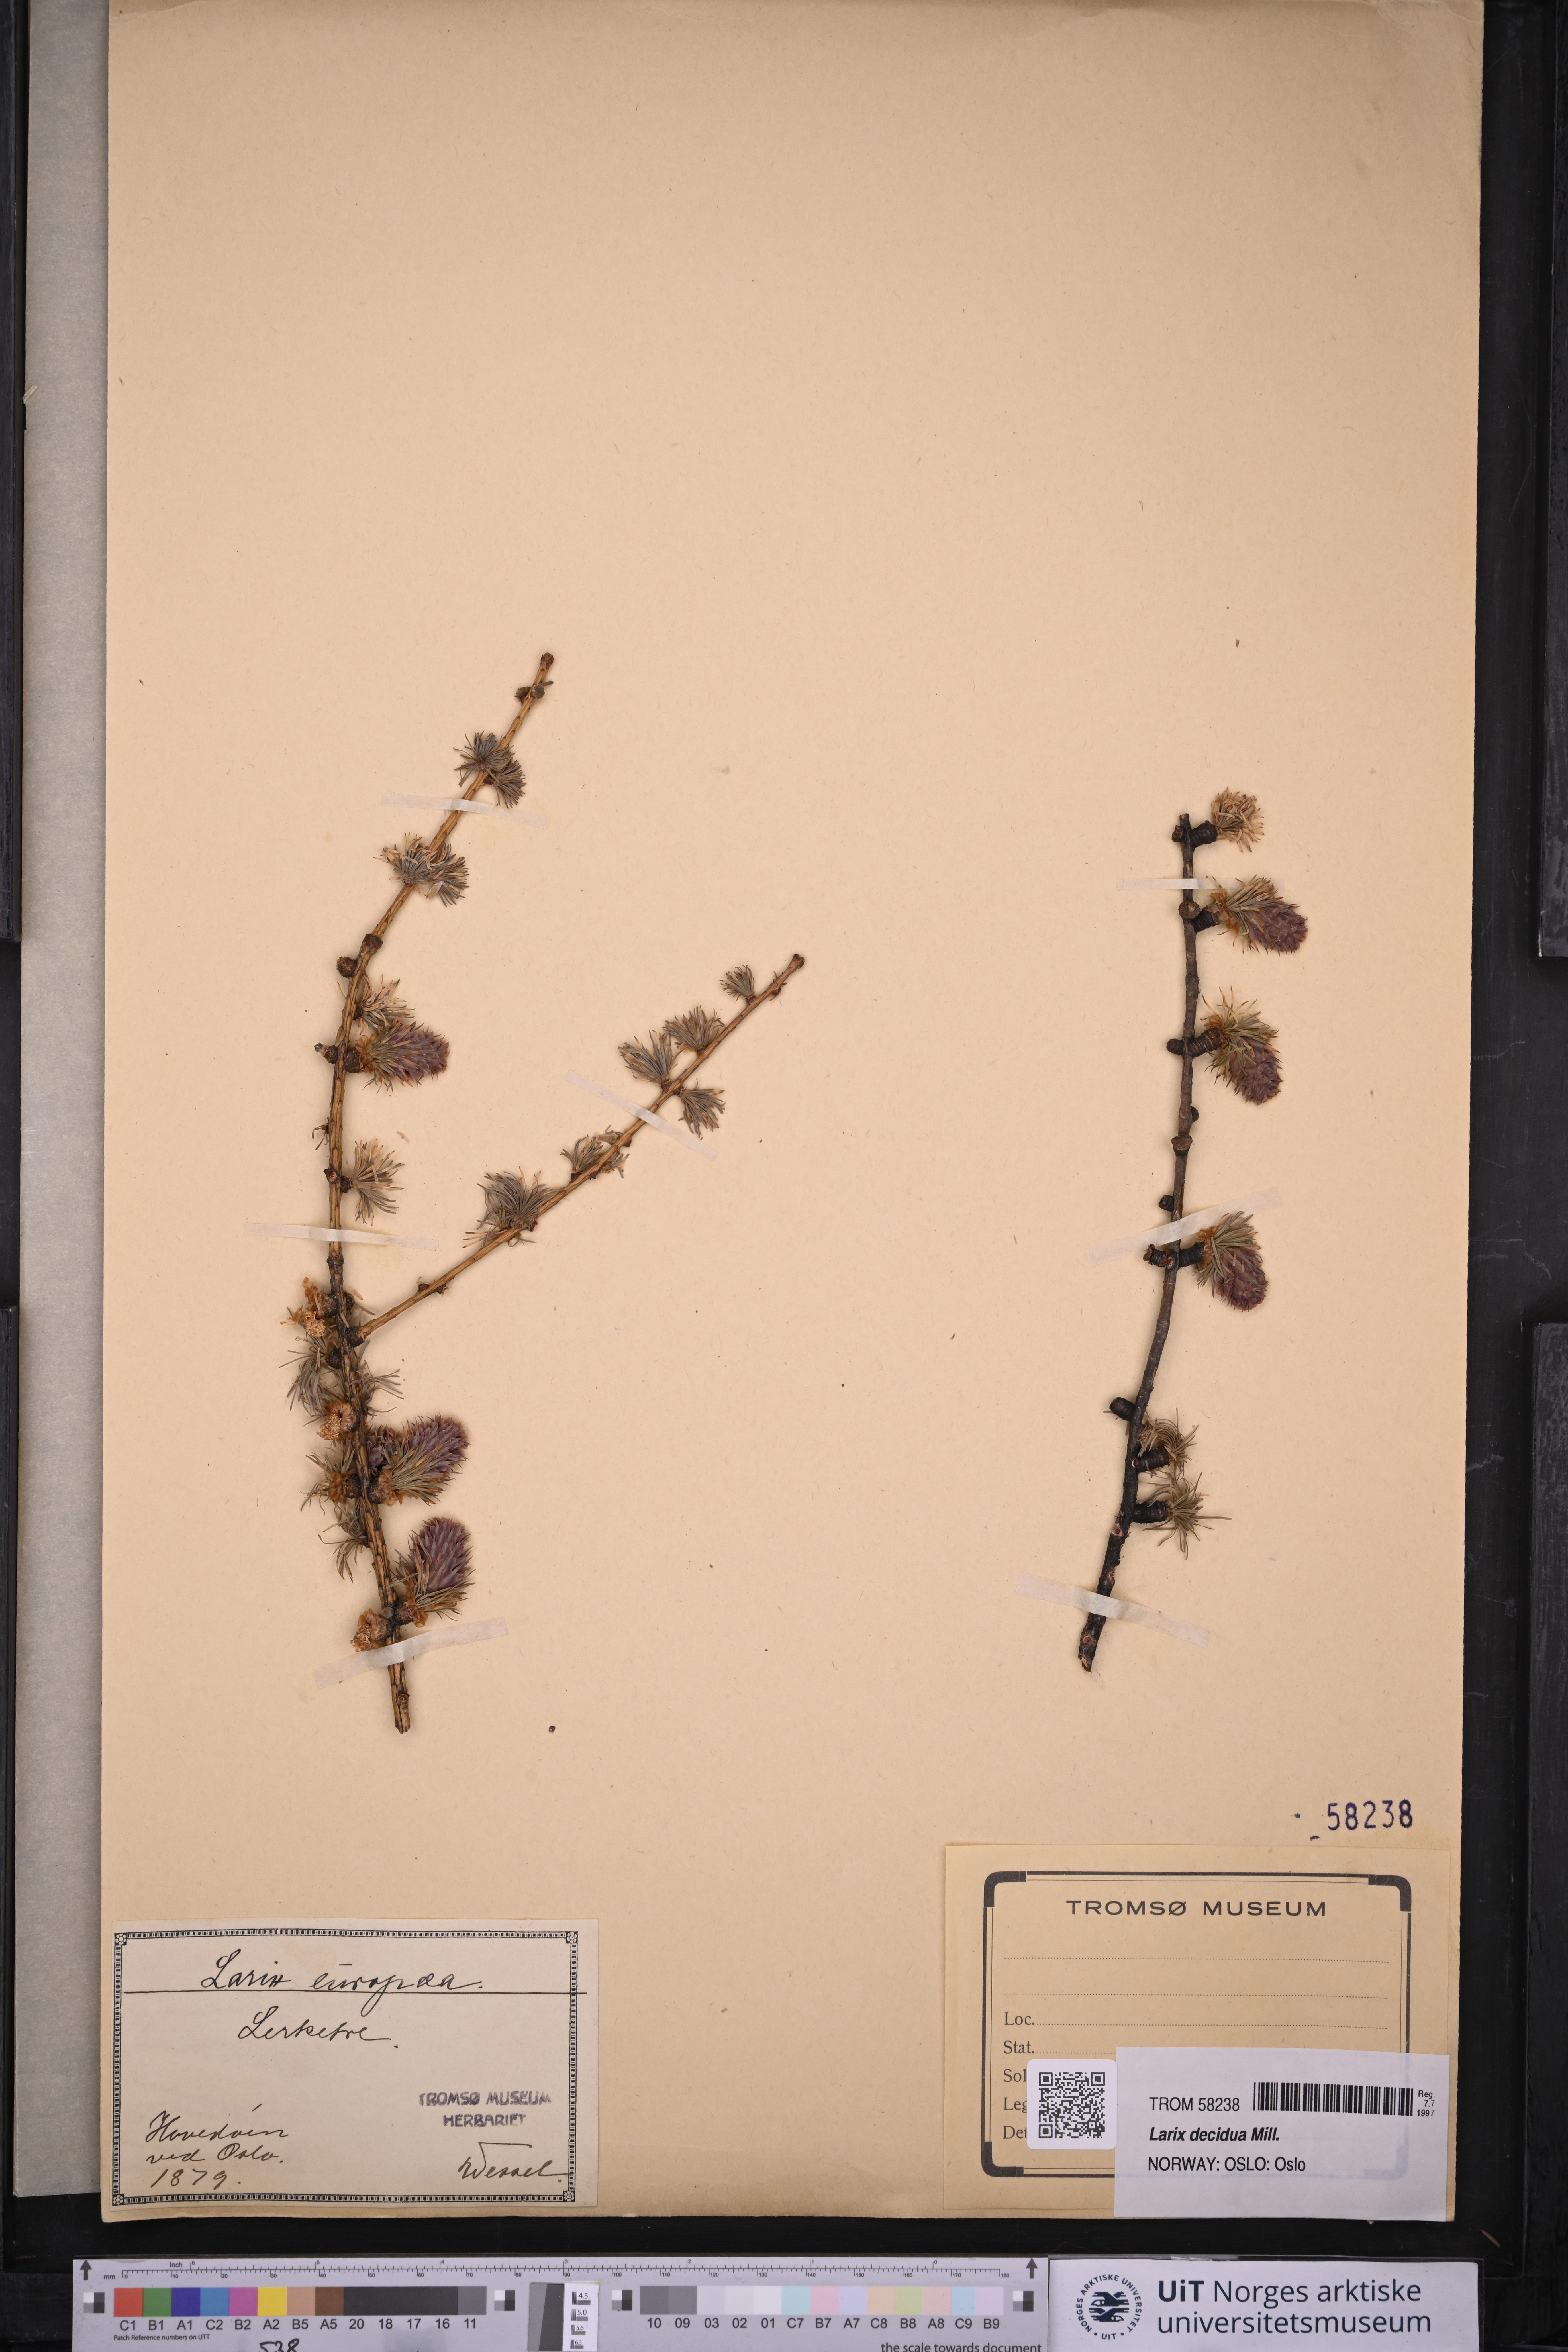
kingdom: Plantae
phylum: Tracheophyta
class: Pinopsida
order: Pinales
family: Pinaceae
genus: Larix
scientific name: Larix decidua
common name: European larch
